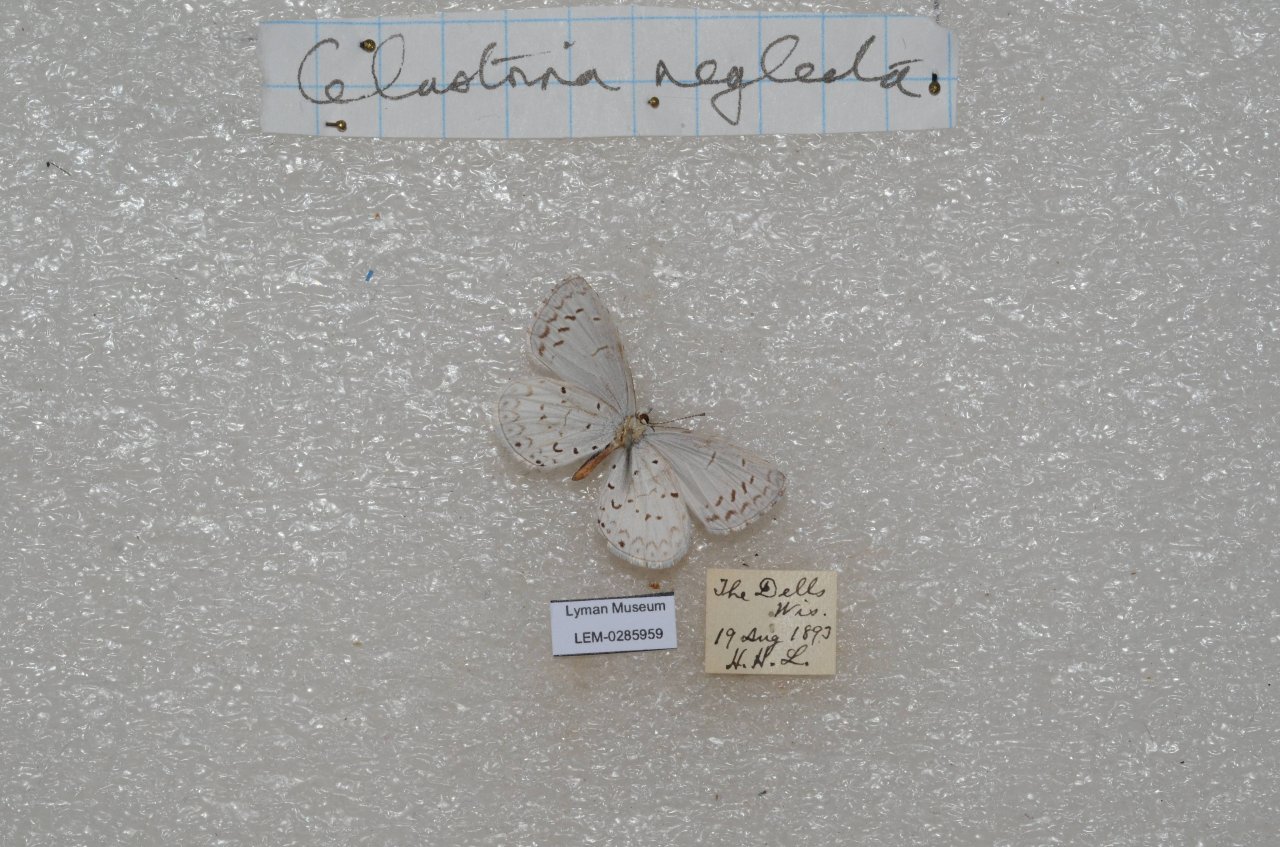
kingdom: Animalia
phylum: Arthropoda
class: Insecta
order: Lepidoptera
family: Lycaenidae
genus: Cyaniris
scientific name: Cyaniris neglecta
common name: Summer Azure
